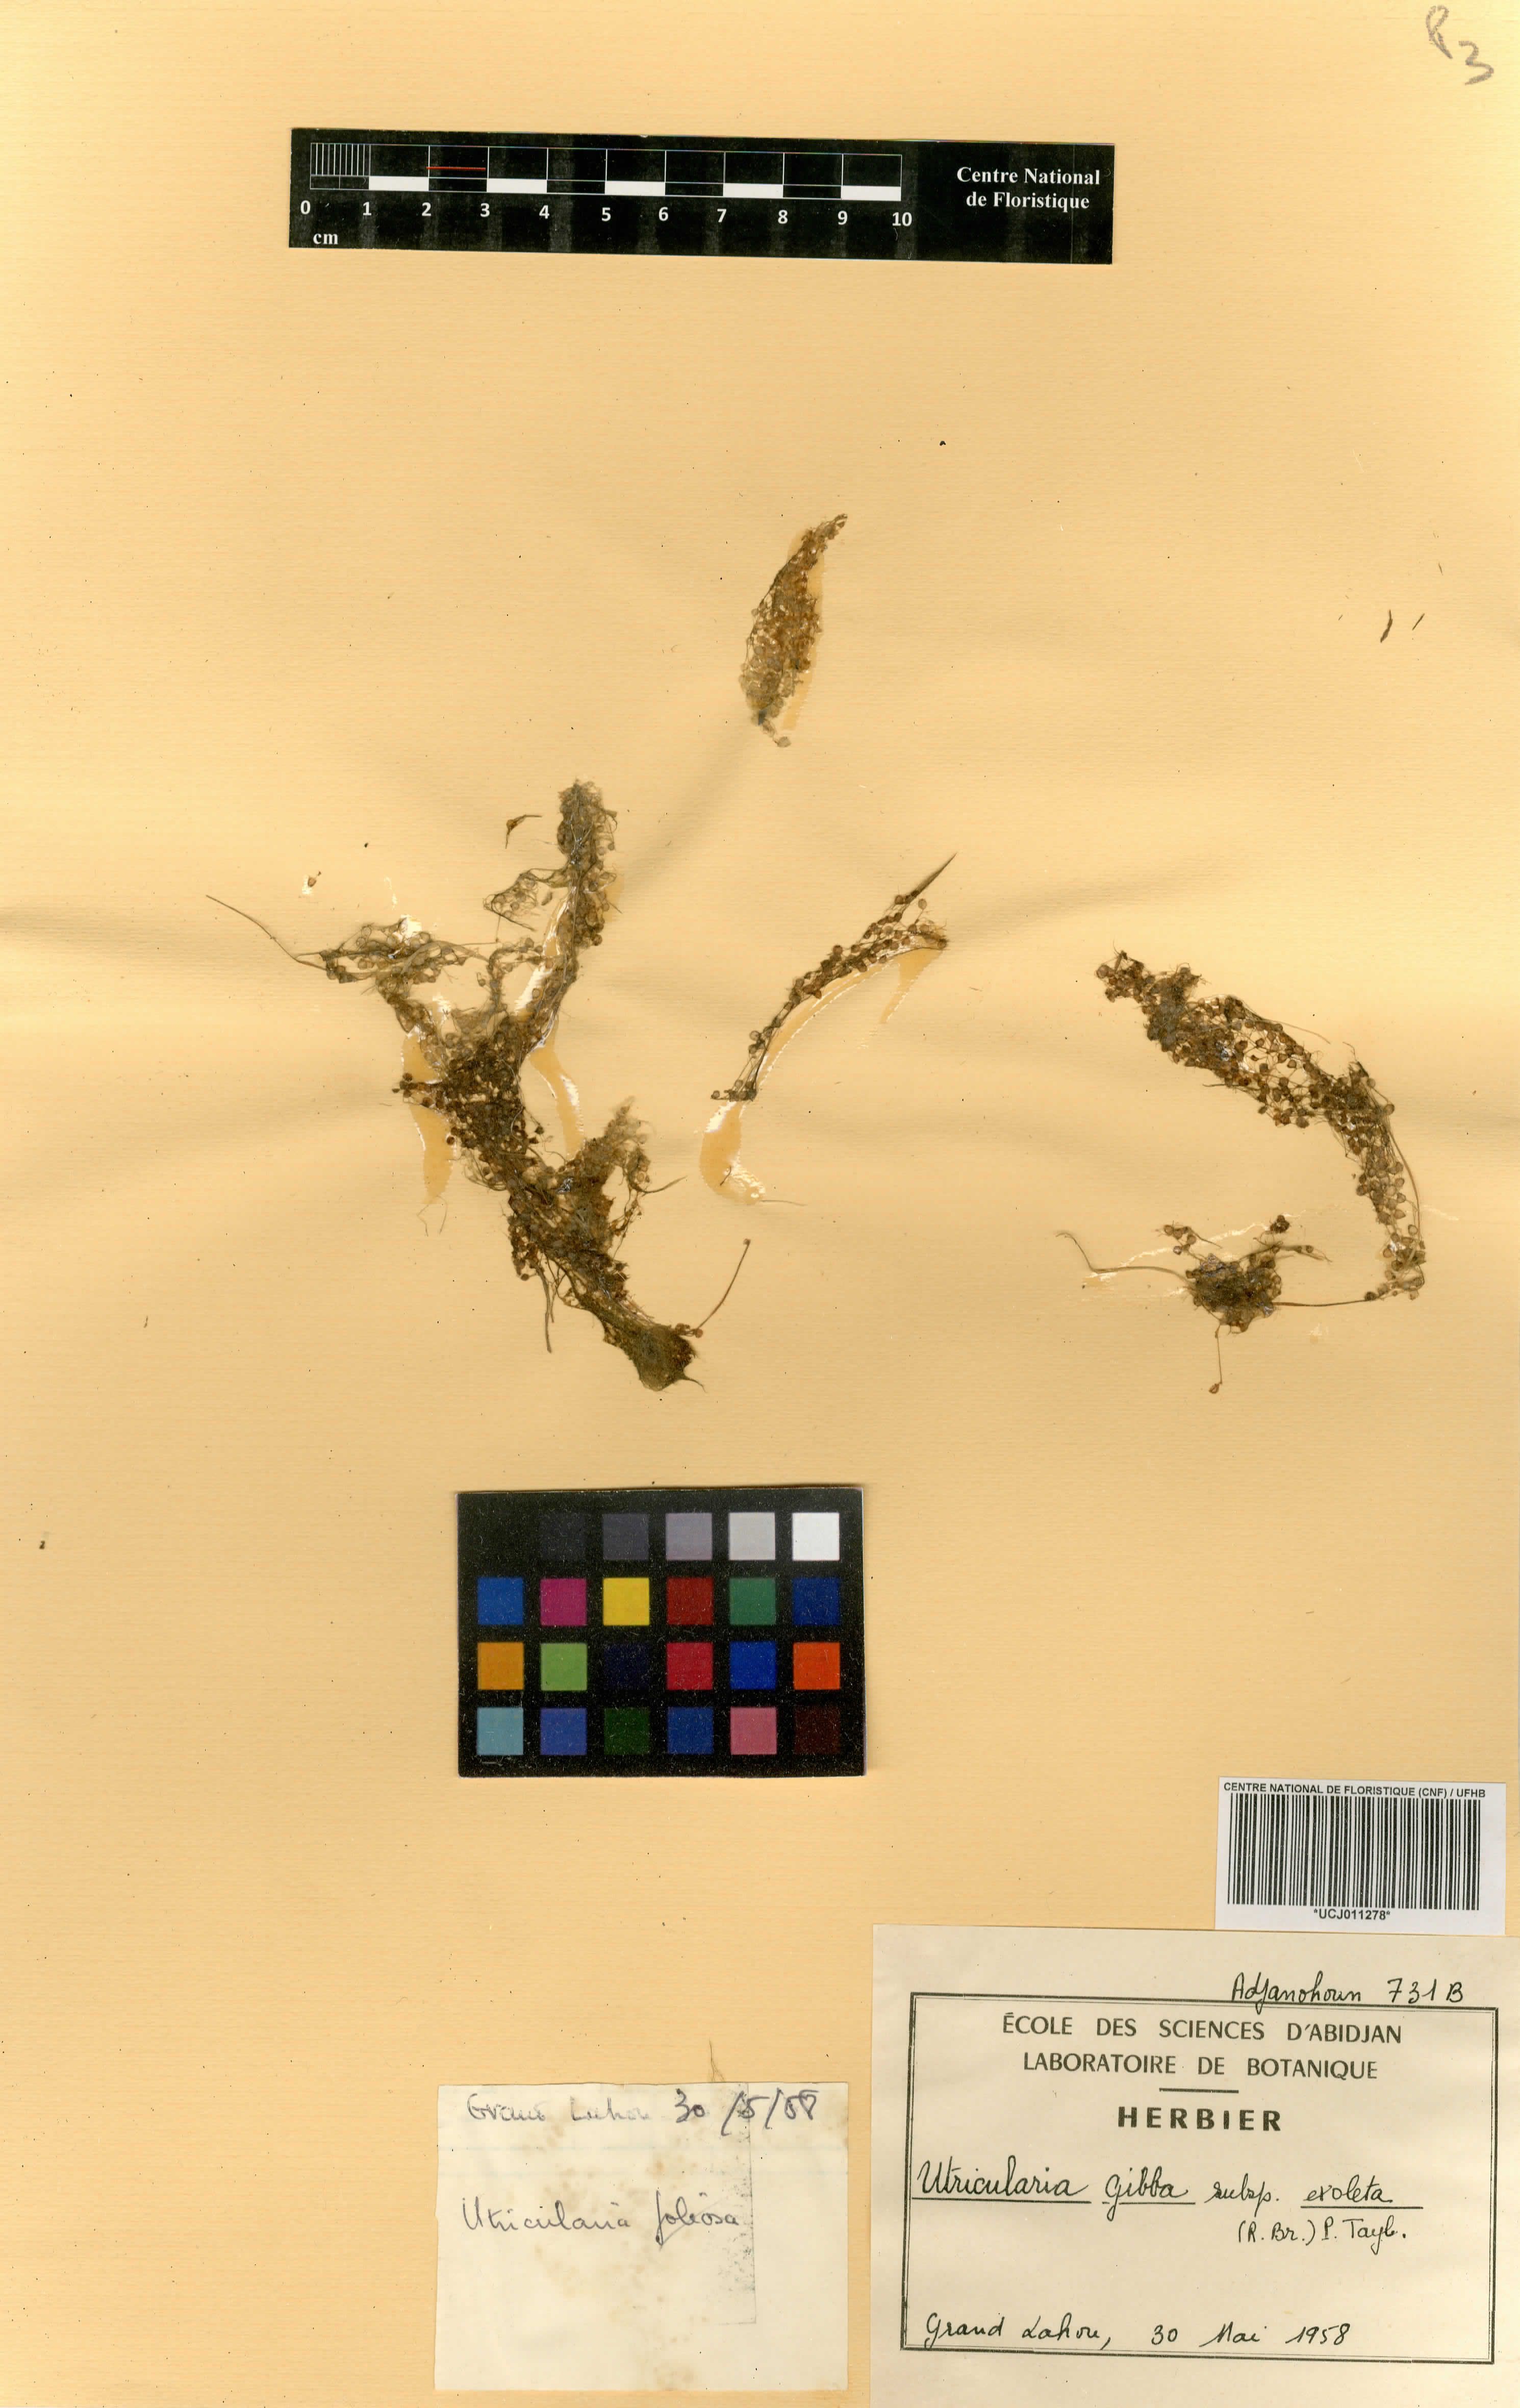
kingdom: Plantae
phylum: Tracheophyta
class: Magnoliopsida
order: Lamiales
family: Lentibulariaceae
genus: Utricularia
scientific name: Utricularia inflexa
